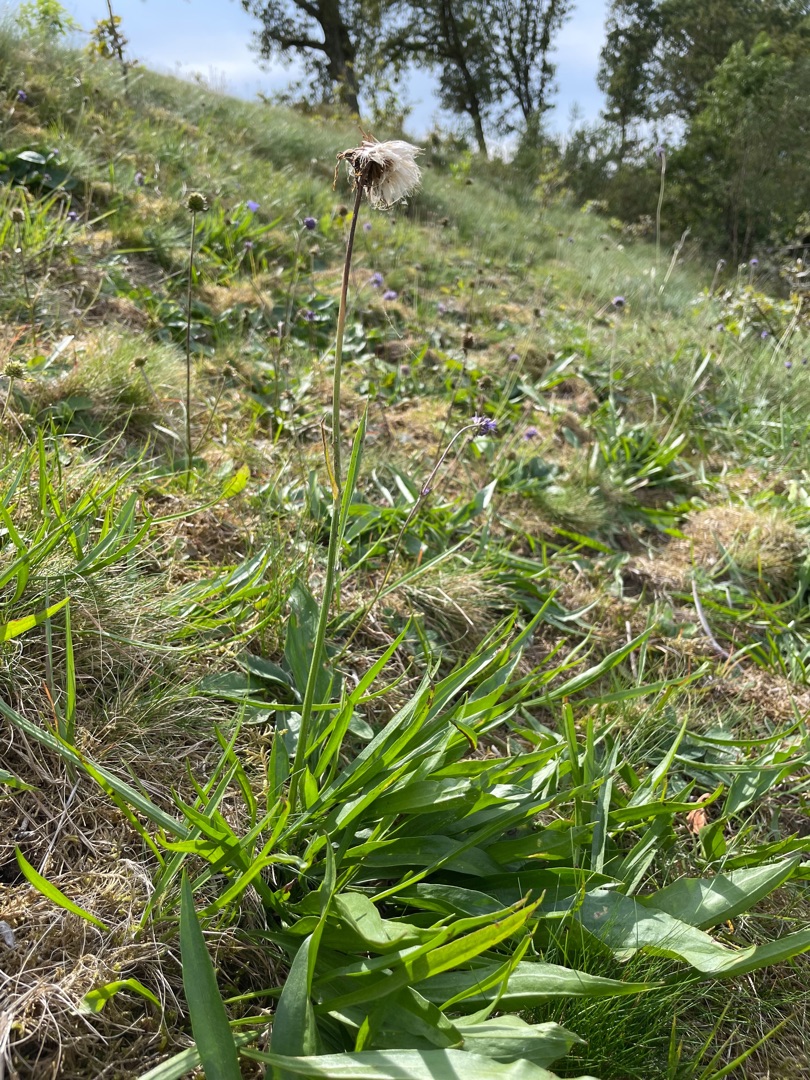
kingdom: Plantae
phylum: Tracheophyta
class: Magnoliopsida
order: Asterales
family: Asteraceae
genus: Scorzonera
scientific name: Scorzonera humilis
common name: Lav skorsoner
